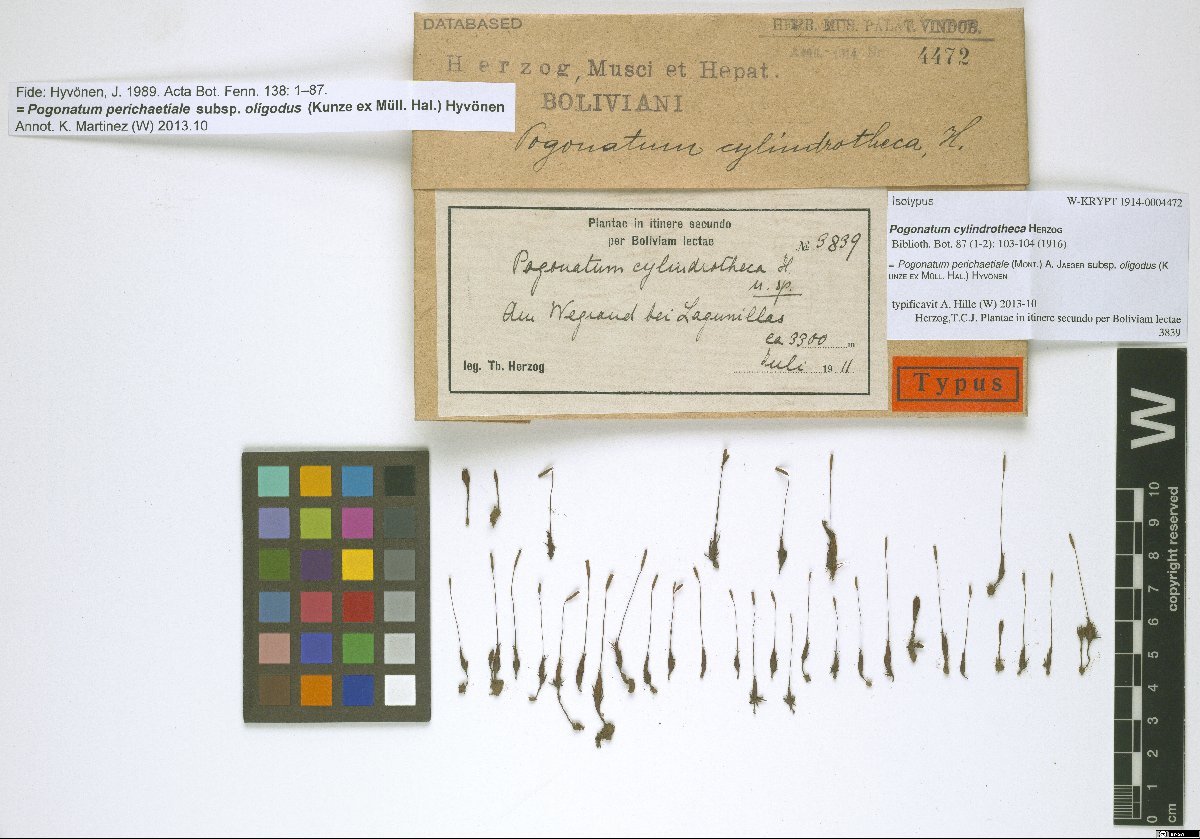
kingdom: Plantae
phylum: Bryophyta
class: Polytrichopsida
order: Polytrichales
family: Polytrichaceae
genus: Pogonatum
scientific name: Pogonatum jamesonii
